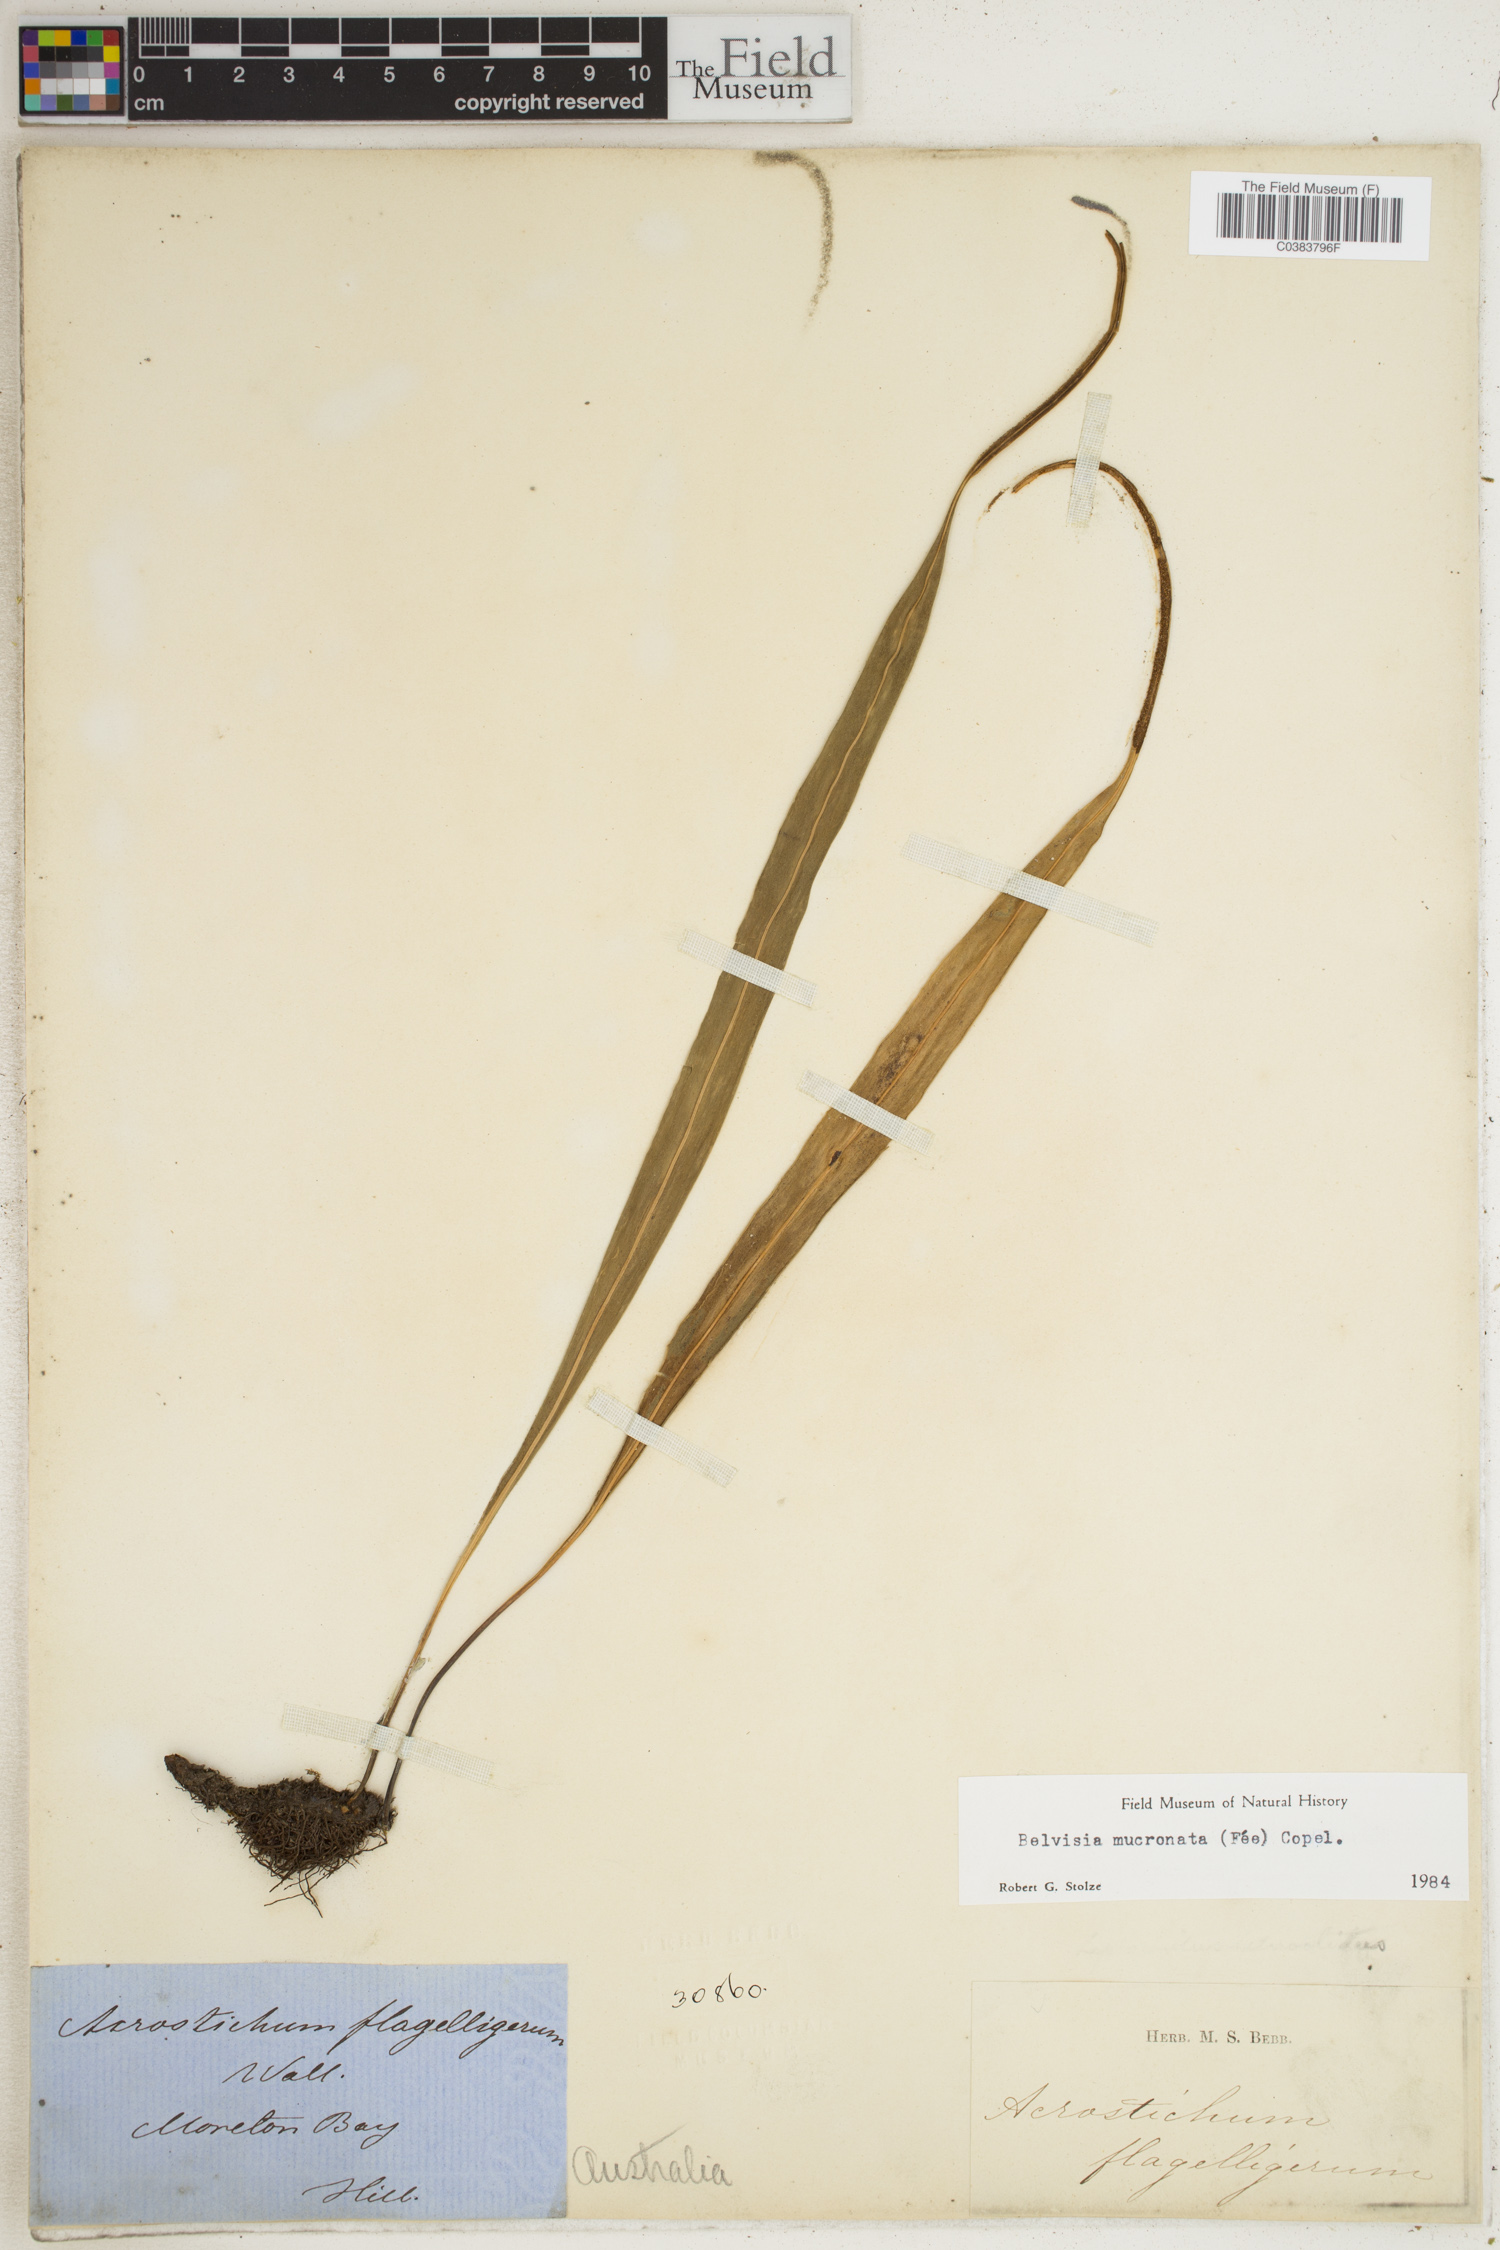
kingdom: Plantae
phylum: Tracheophyta
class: Polypodiopsida
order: Polypodiales
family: Polypodiaceae
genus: Lepisorus
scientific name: Lepisorus mucronatus
